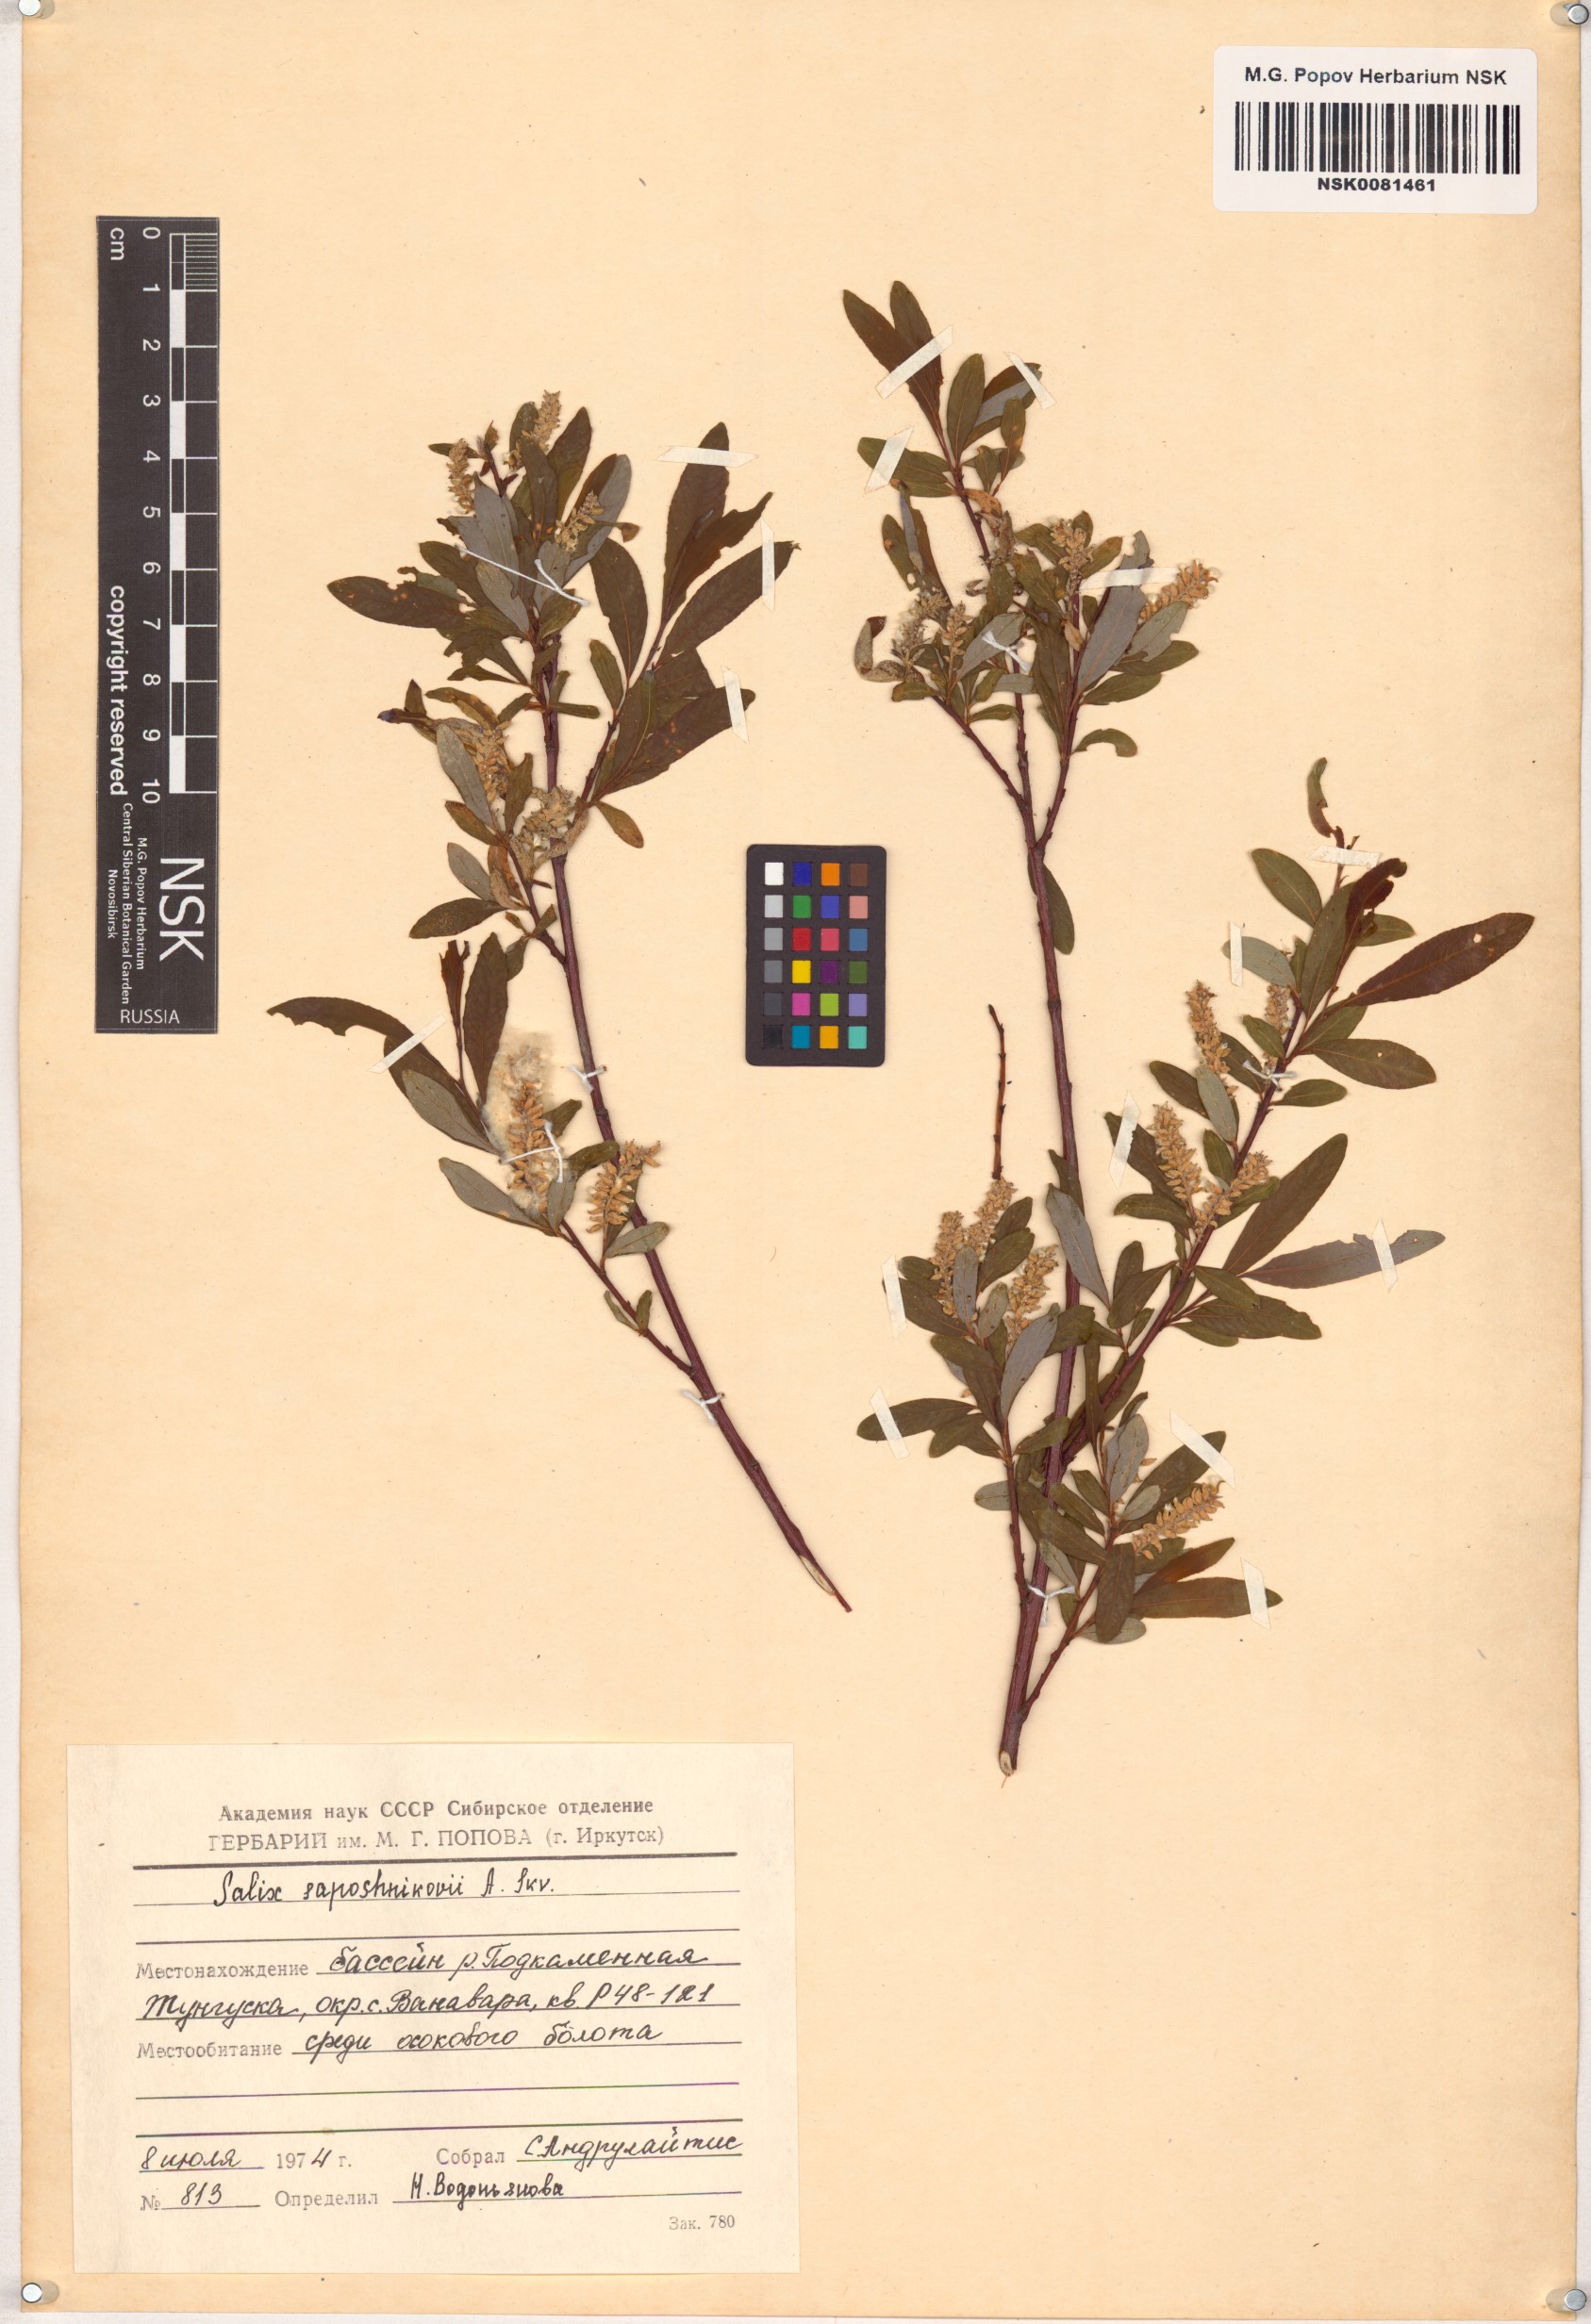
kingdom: Plantae
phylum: Tracheophyta
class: Magnoliopsida
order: Malpighiales
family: Salicaceae
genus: Salix
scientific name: Salix saposhnikovii
